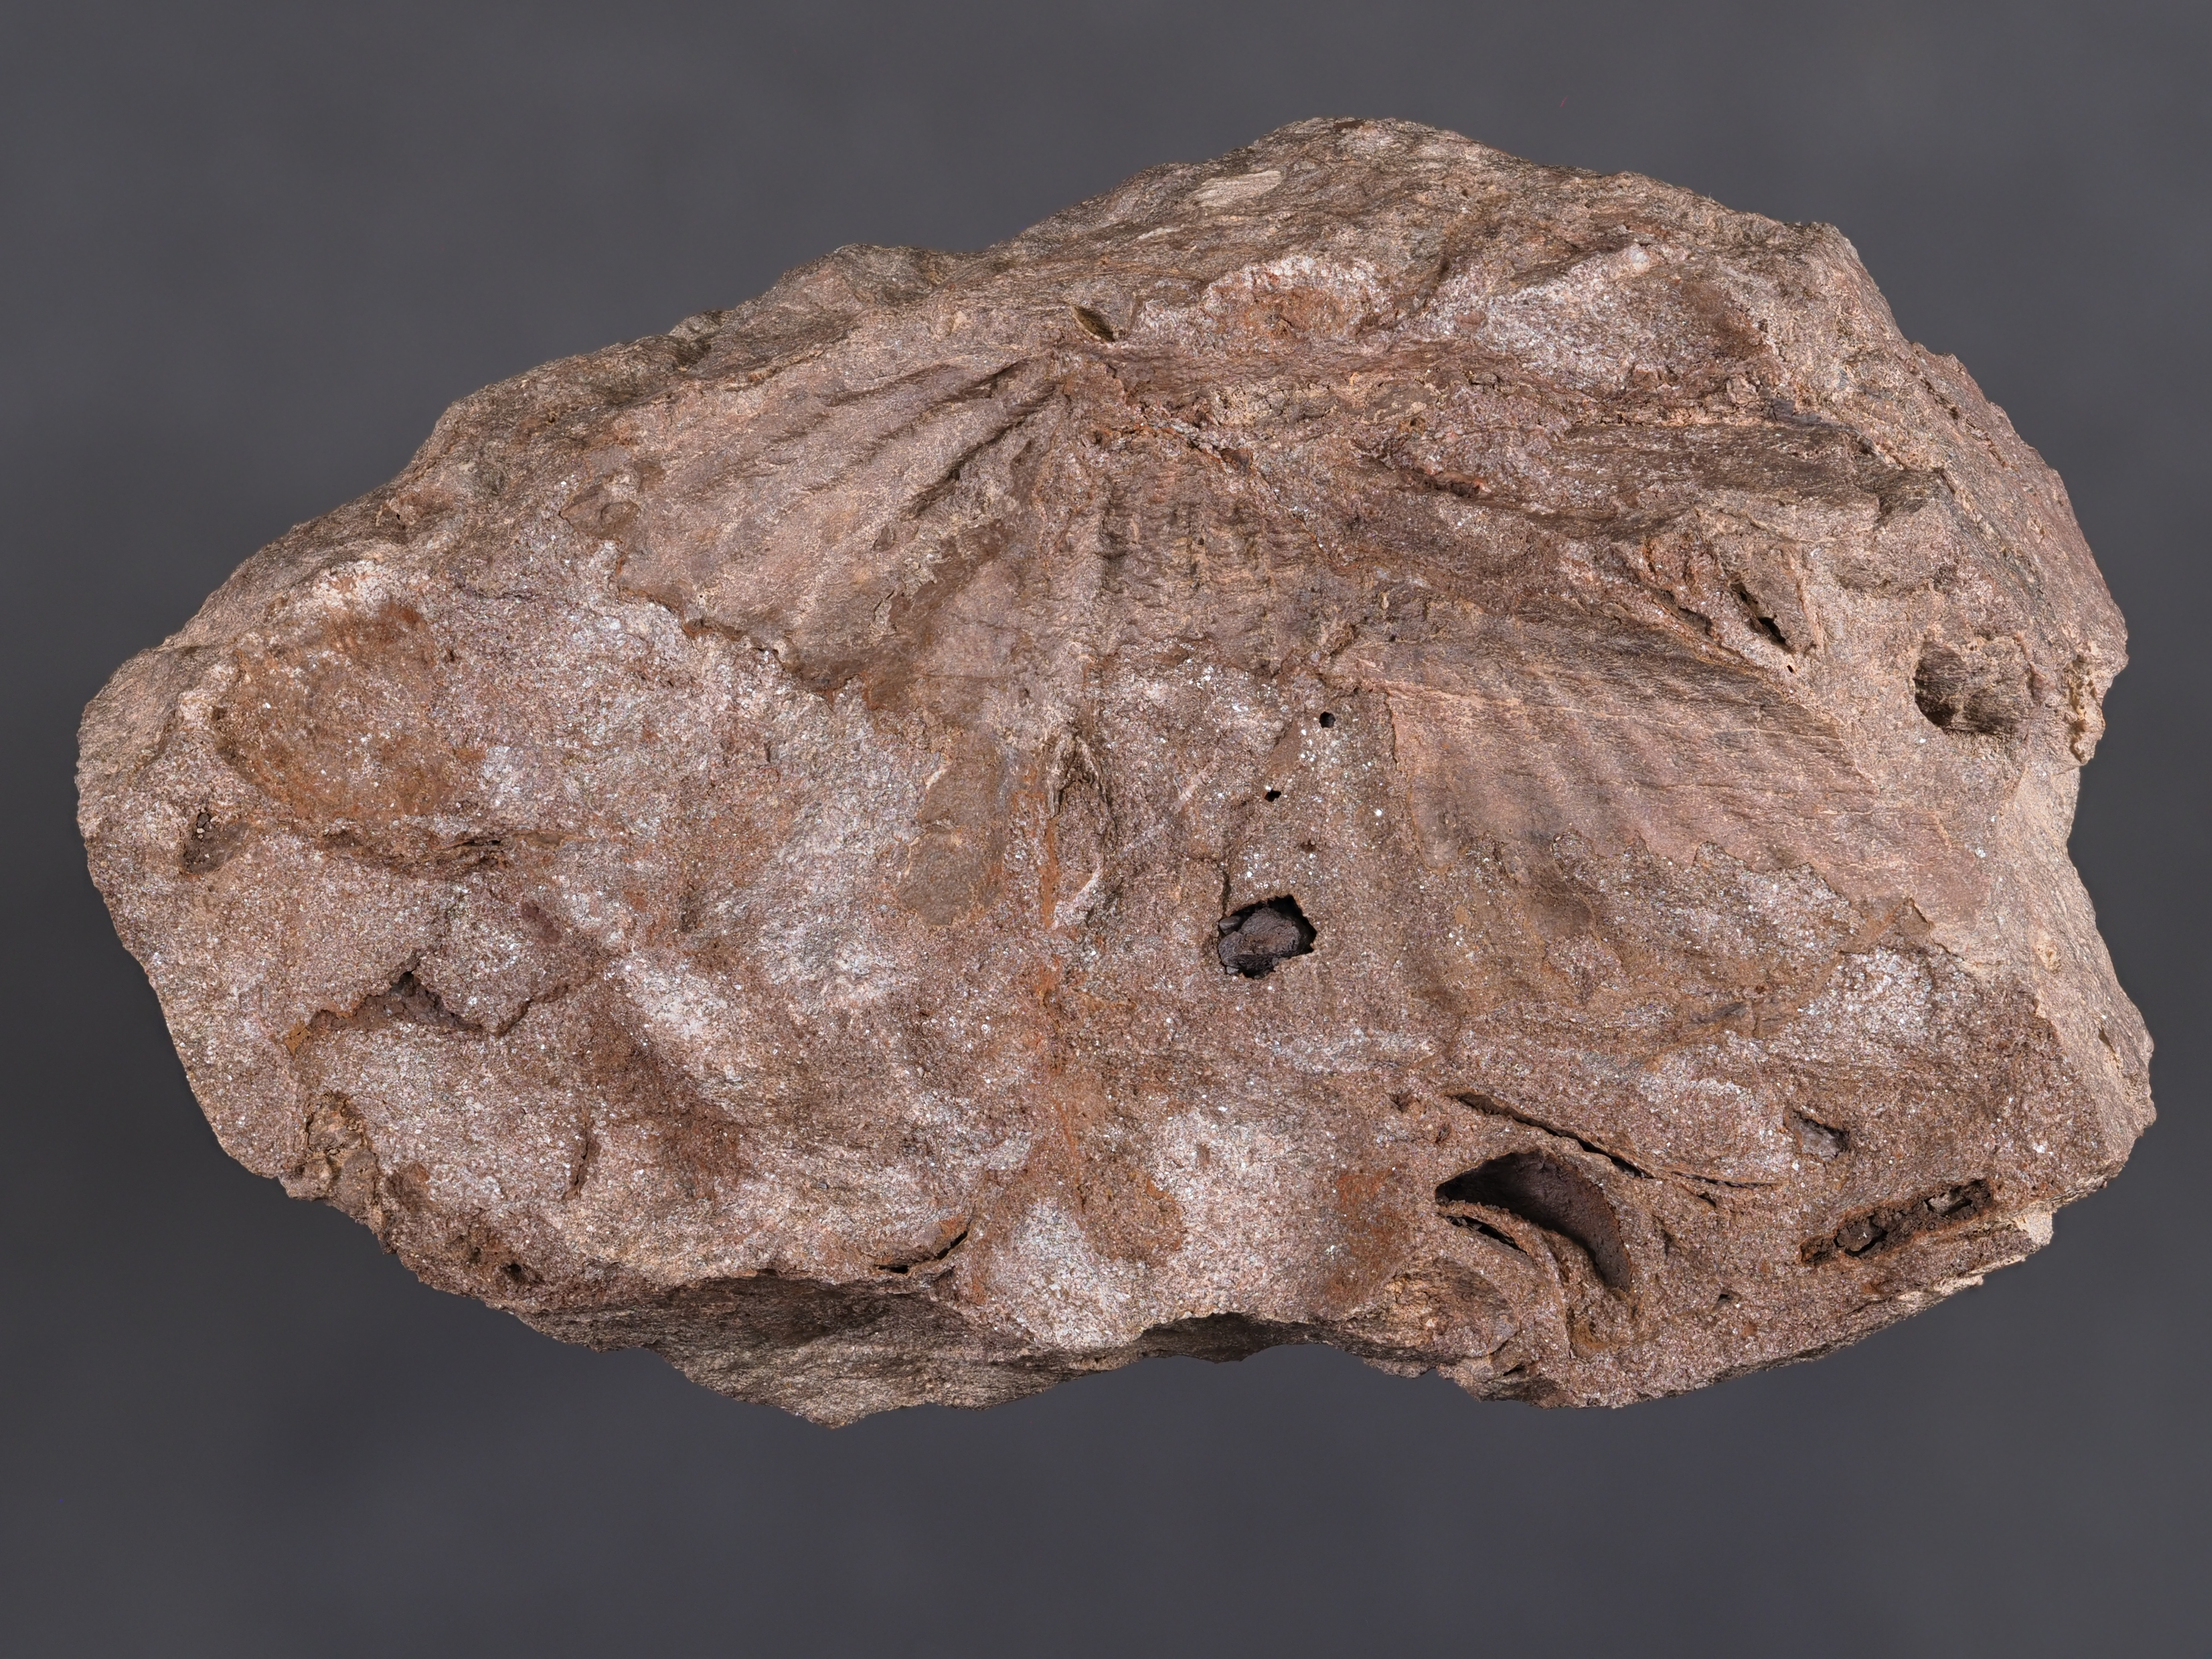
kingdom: Animalia
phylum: Brachiopoda
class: Rhynchonellata
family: Delthyrididae
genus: Euryspirifer
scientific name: Euryspirifer Spirifer assimilis
